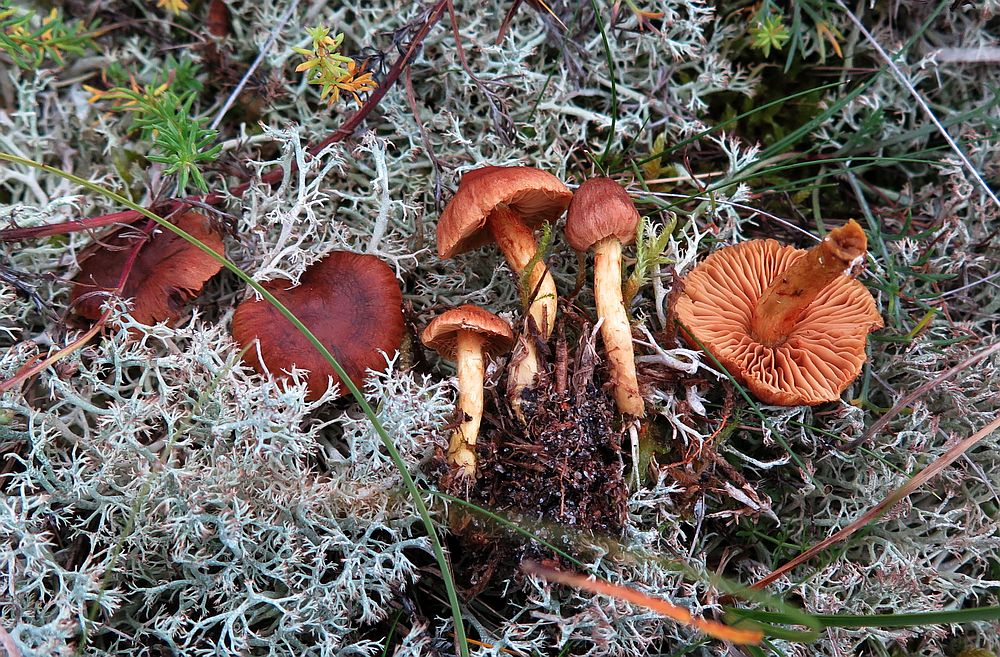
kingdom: Fungi
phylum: Basidiomycota
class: Agaricomycetes
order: Agaricales
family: Cortinariaceae
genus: Cortinarius
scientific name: Cortinarius pratensis
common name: hede-slørhat
